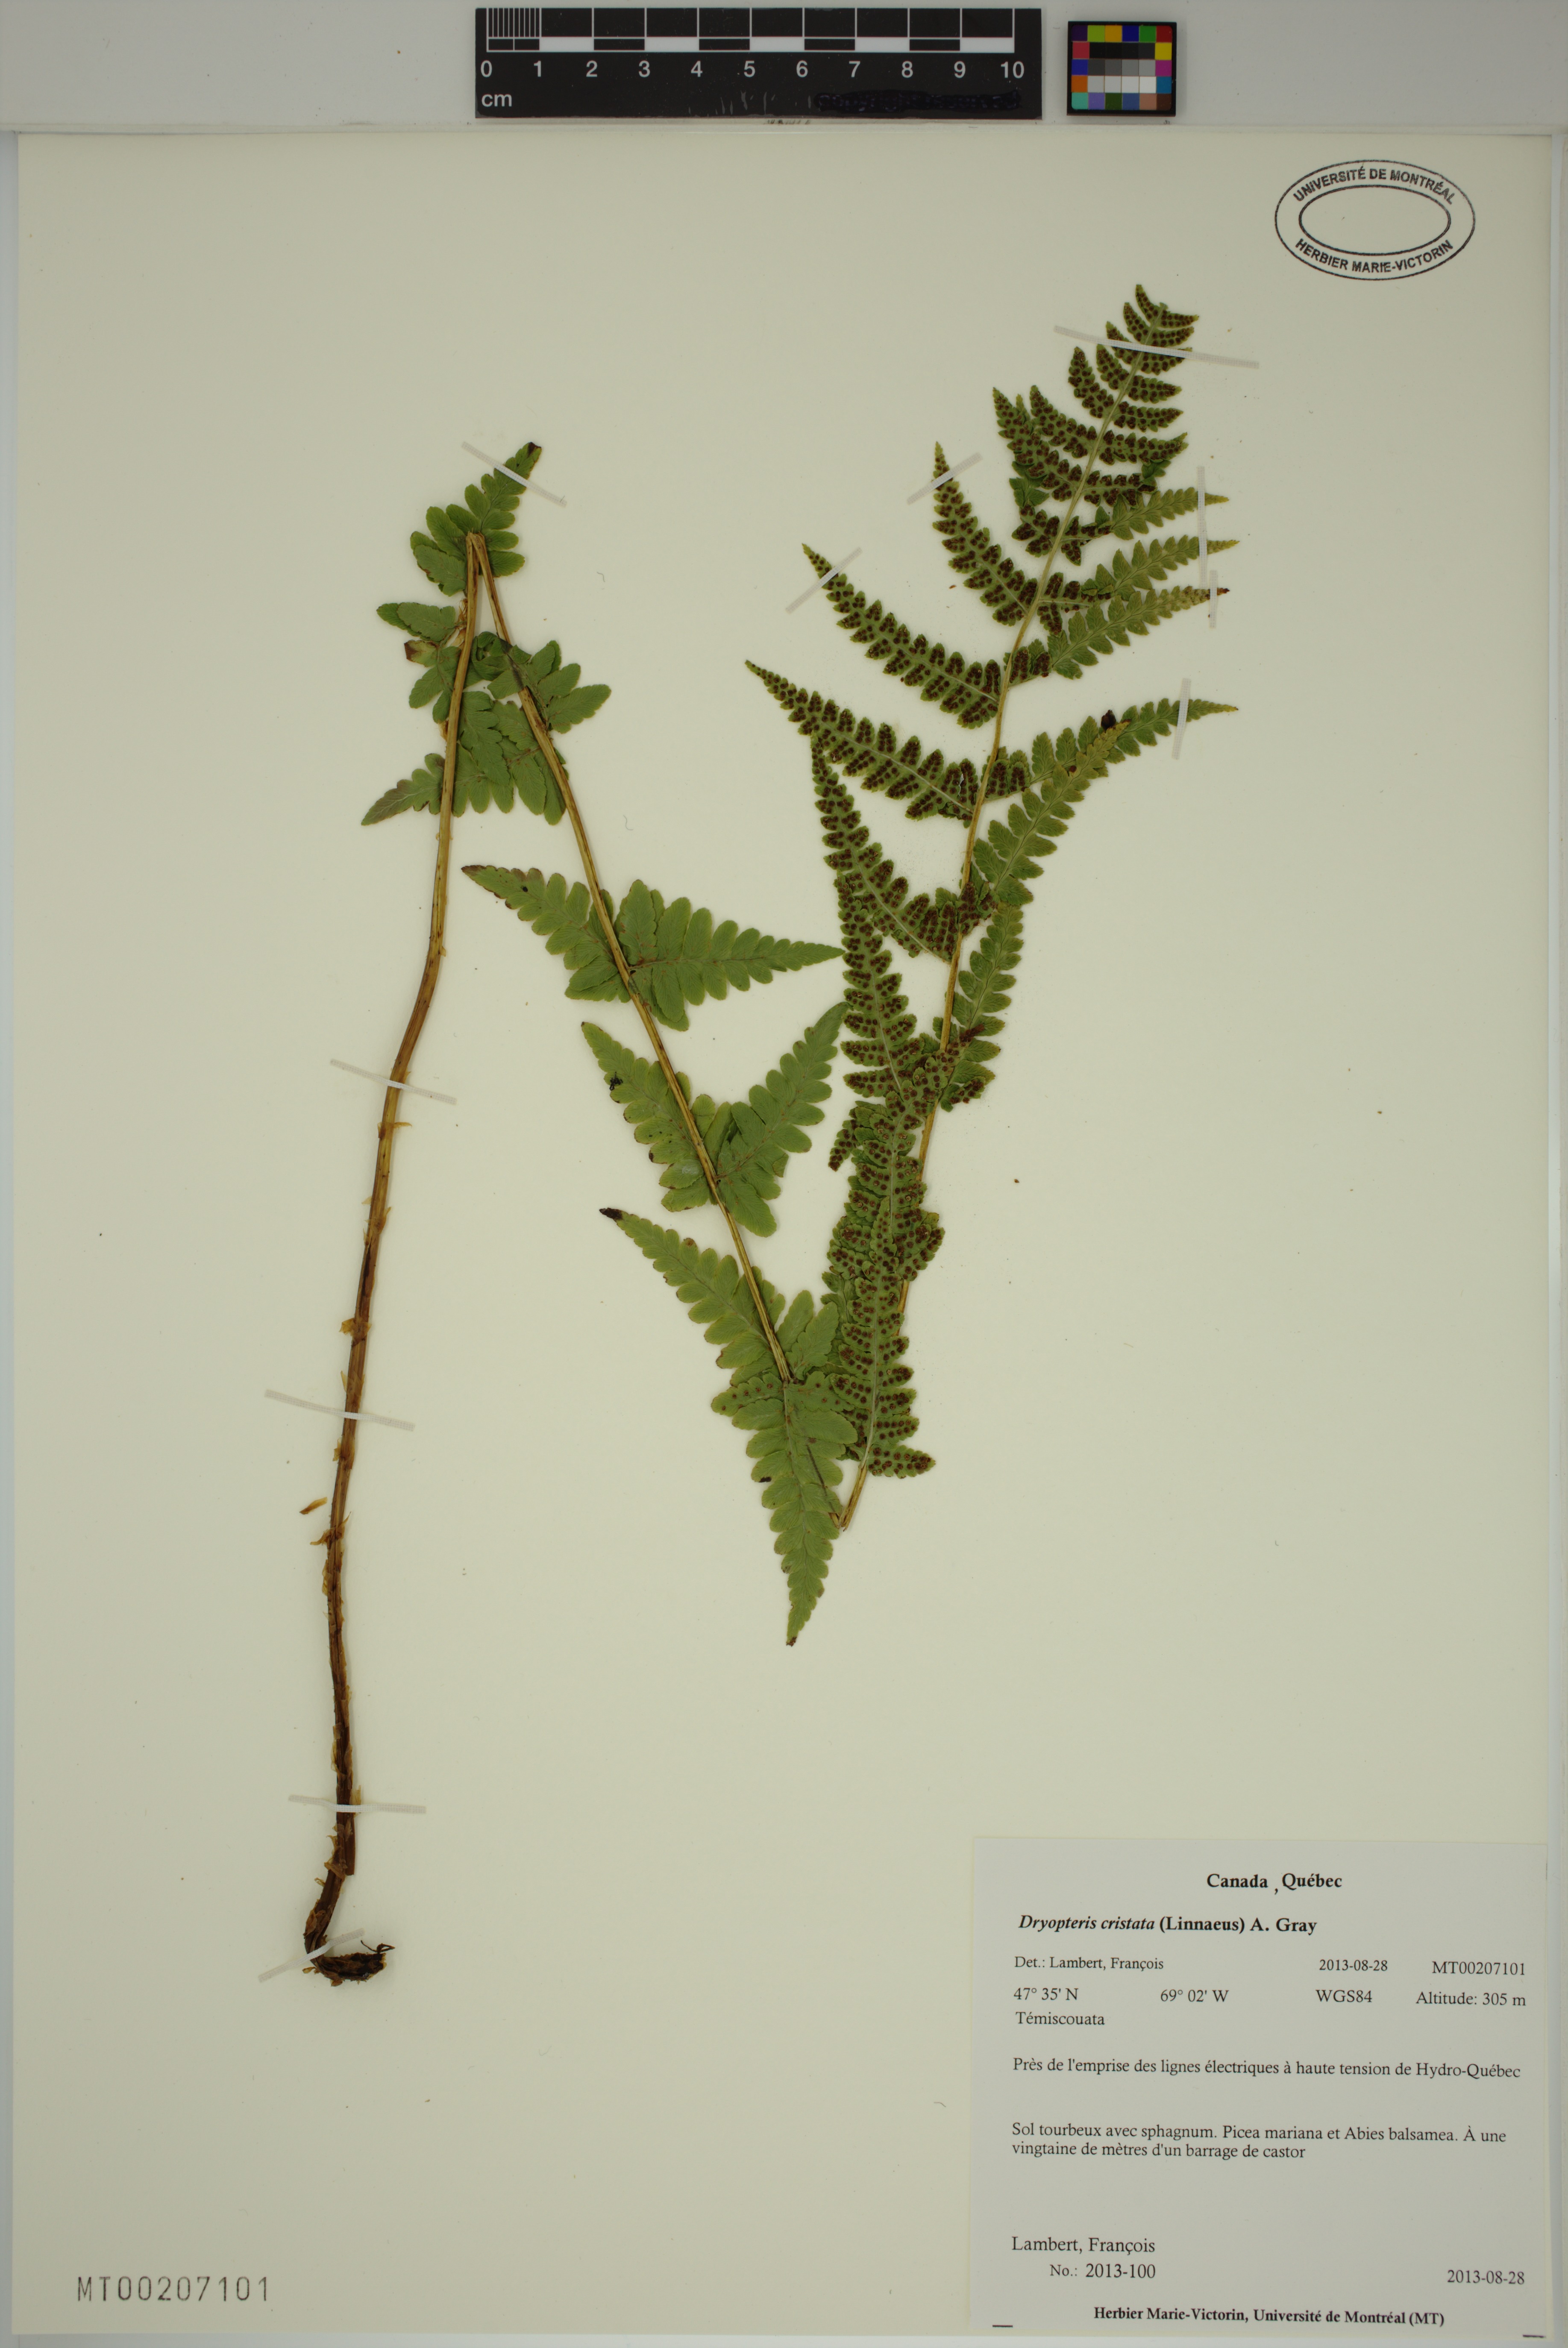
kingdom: Plantae
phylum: Tracheophyta
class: Polypodiopsida
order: Polypodiales
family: Dryopteridaceae
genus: Dryopteris
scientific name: Dryopteris cristata
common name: Crested wood fern
